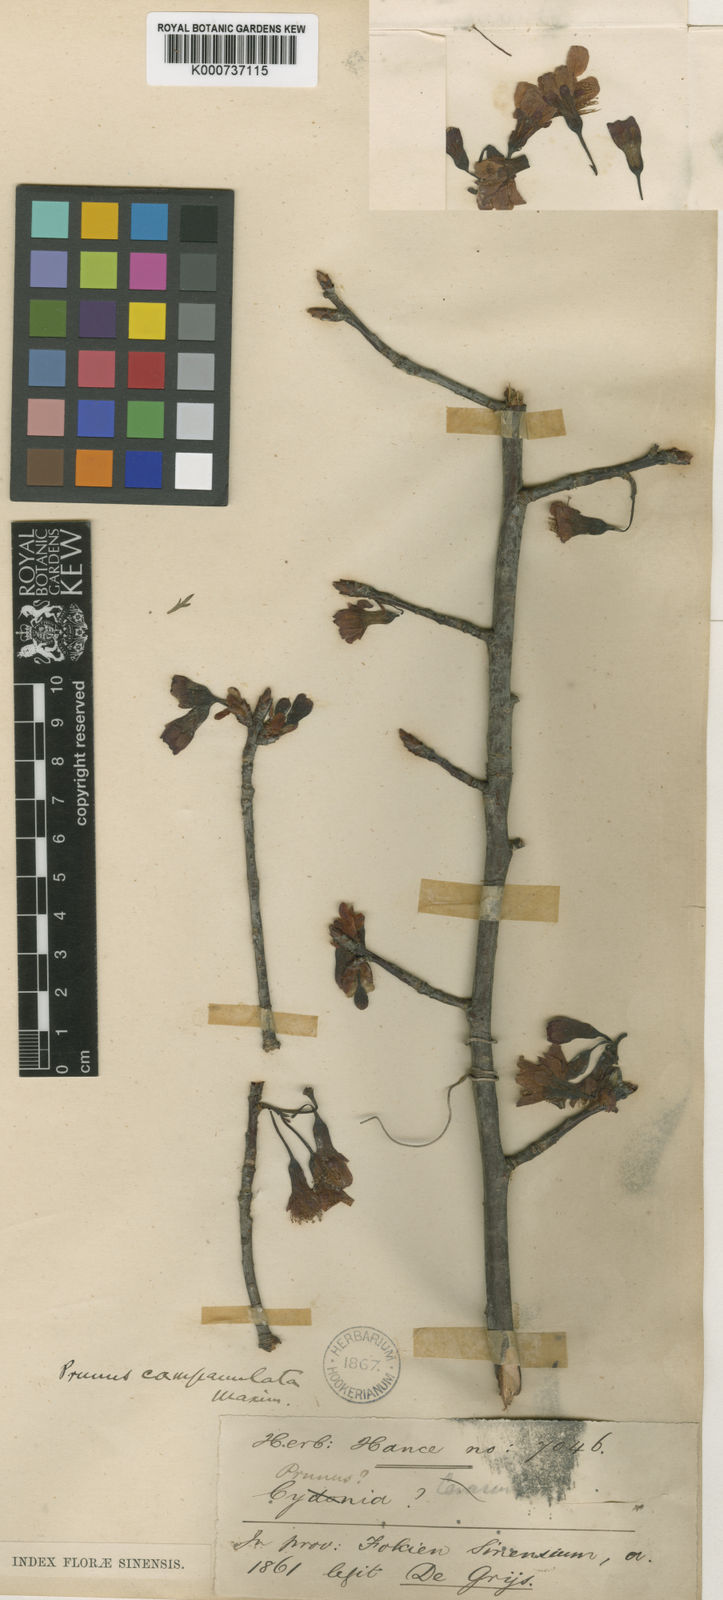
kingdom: Plantae
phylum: Tracheophyta
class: Magnoliopsida
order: Rosales
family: Rosaceae
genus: Prunus
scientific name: Prunus campanulata
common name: Taiwan flowering cherry
